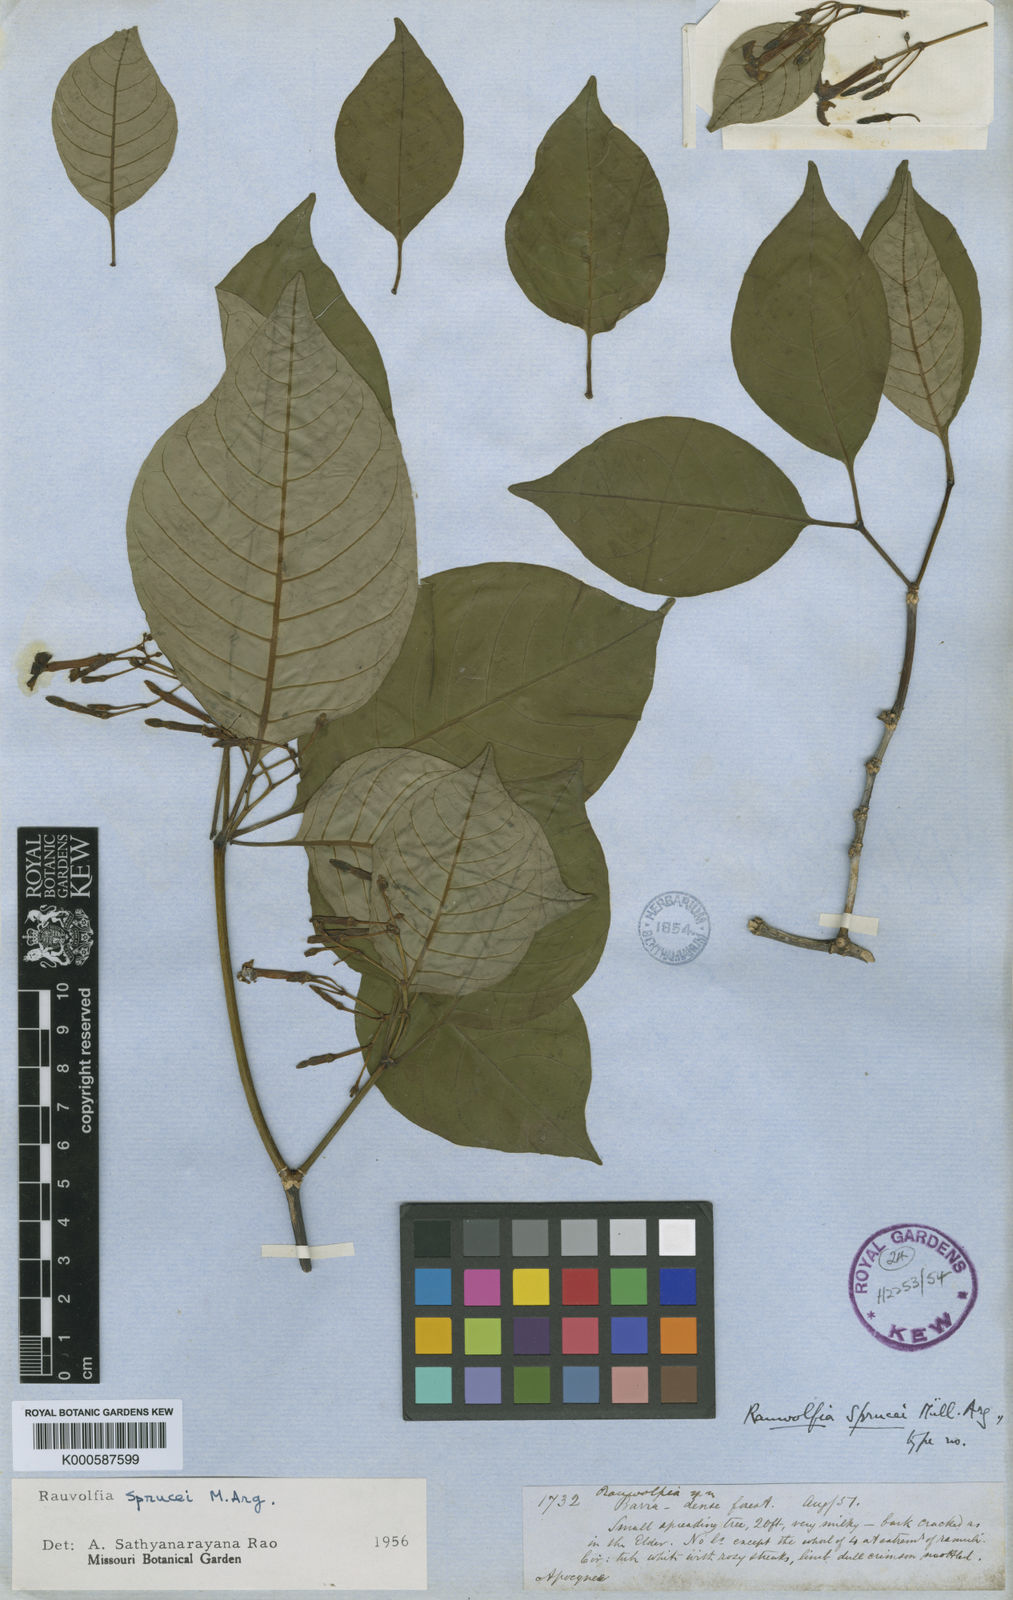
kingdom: Plantae
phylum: Tracheophyta
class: Magnoliopsida
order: Gentianales
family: Apocynaceae
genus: Rauvolfia
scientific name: Rauvolfia
